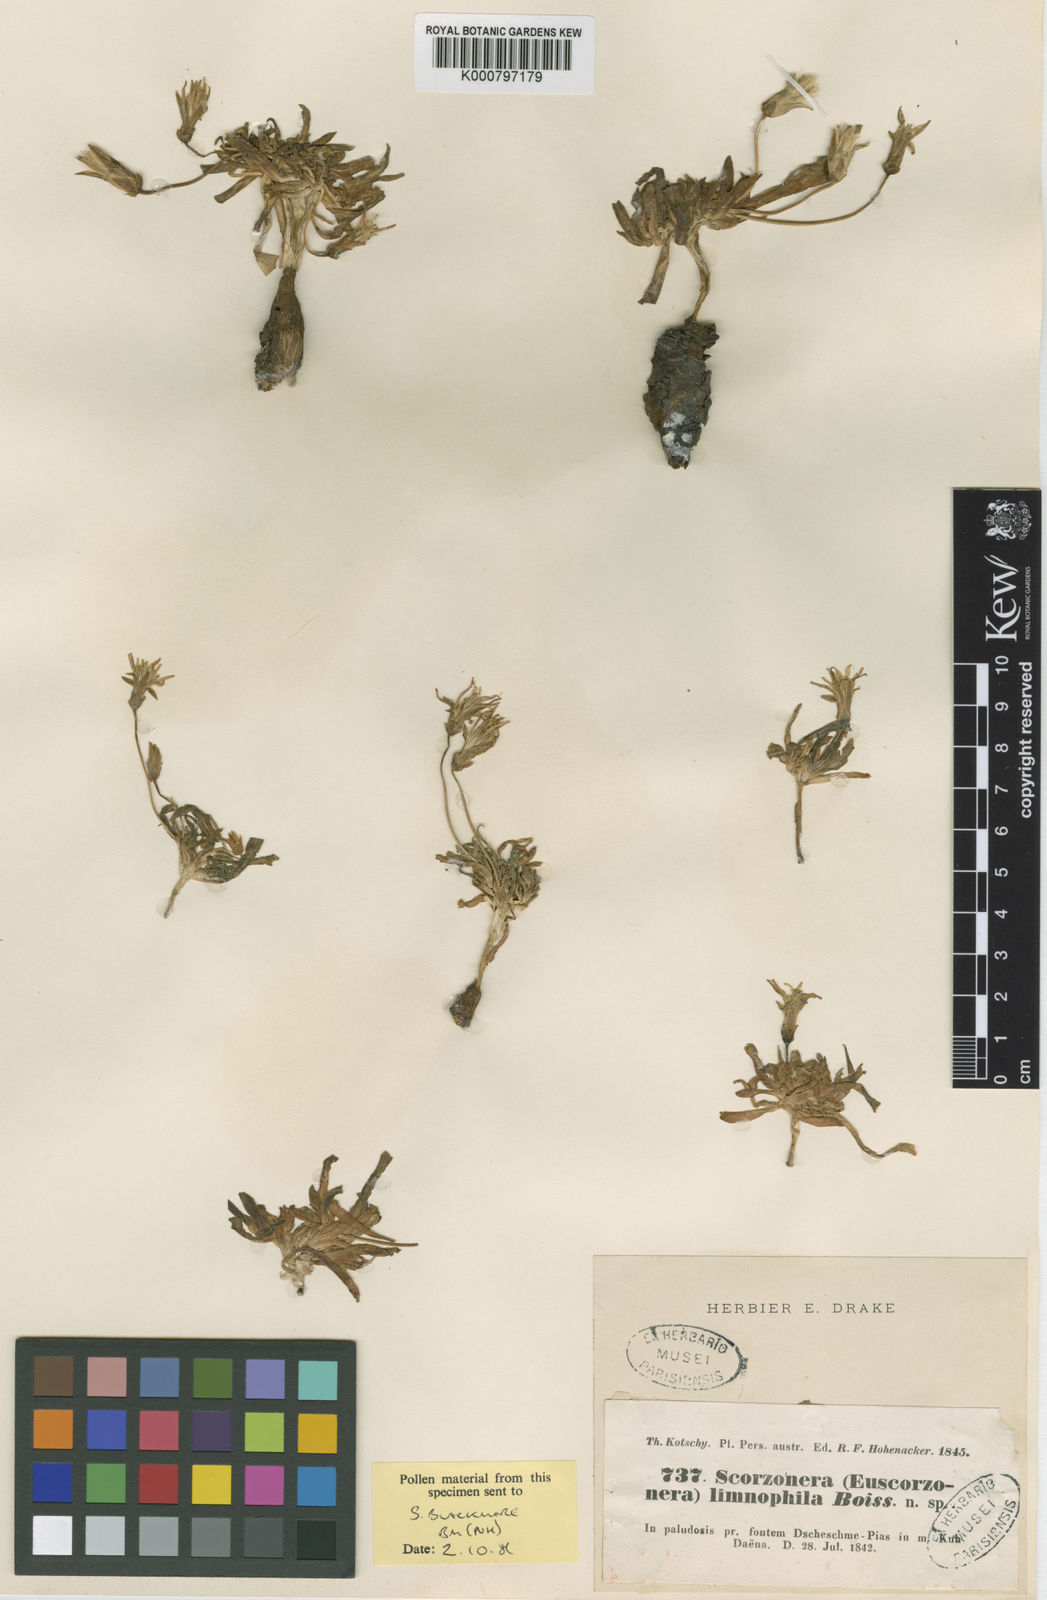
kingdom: Plantae
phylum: Tracheophyta
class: Magnoliopsida
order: Asterales
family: Asteraceae
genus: Scorzonera
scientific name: Scorzonera limnophila
